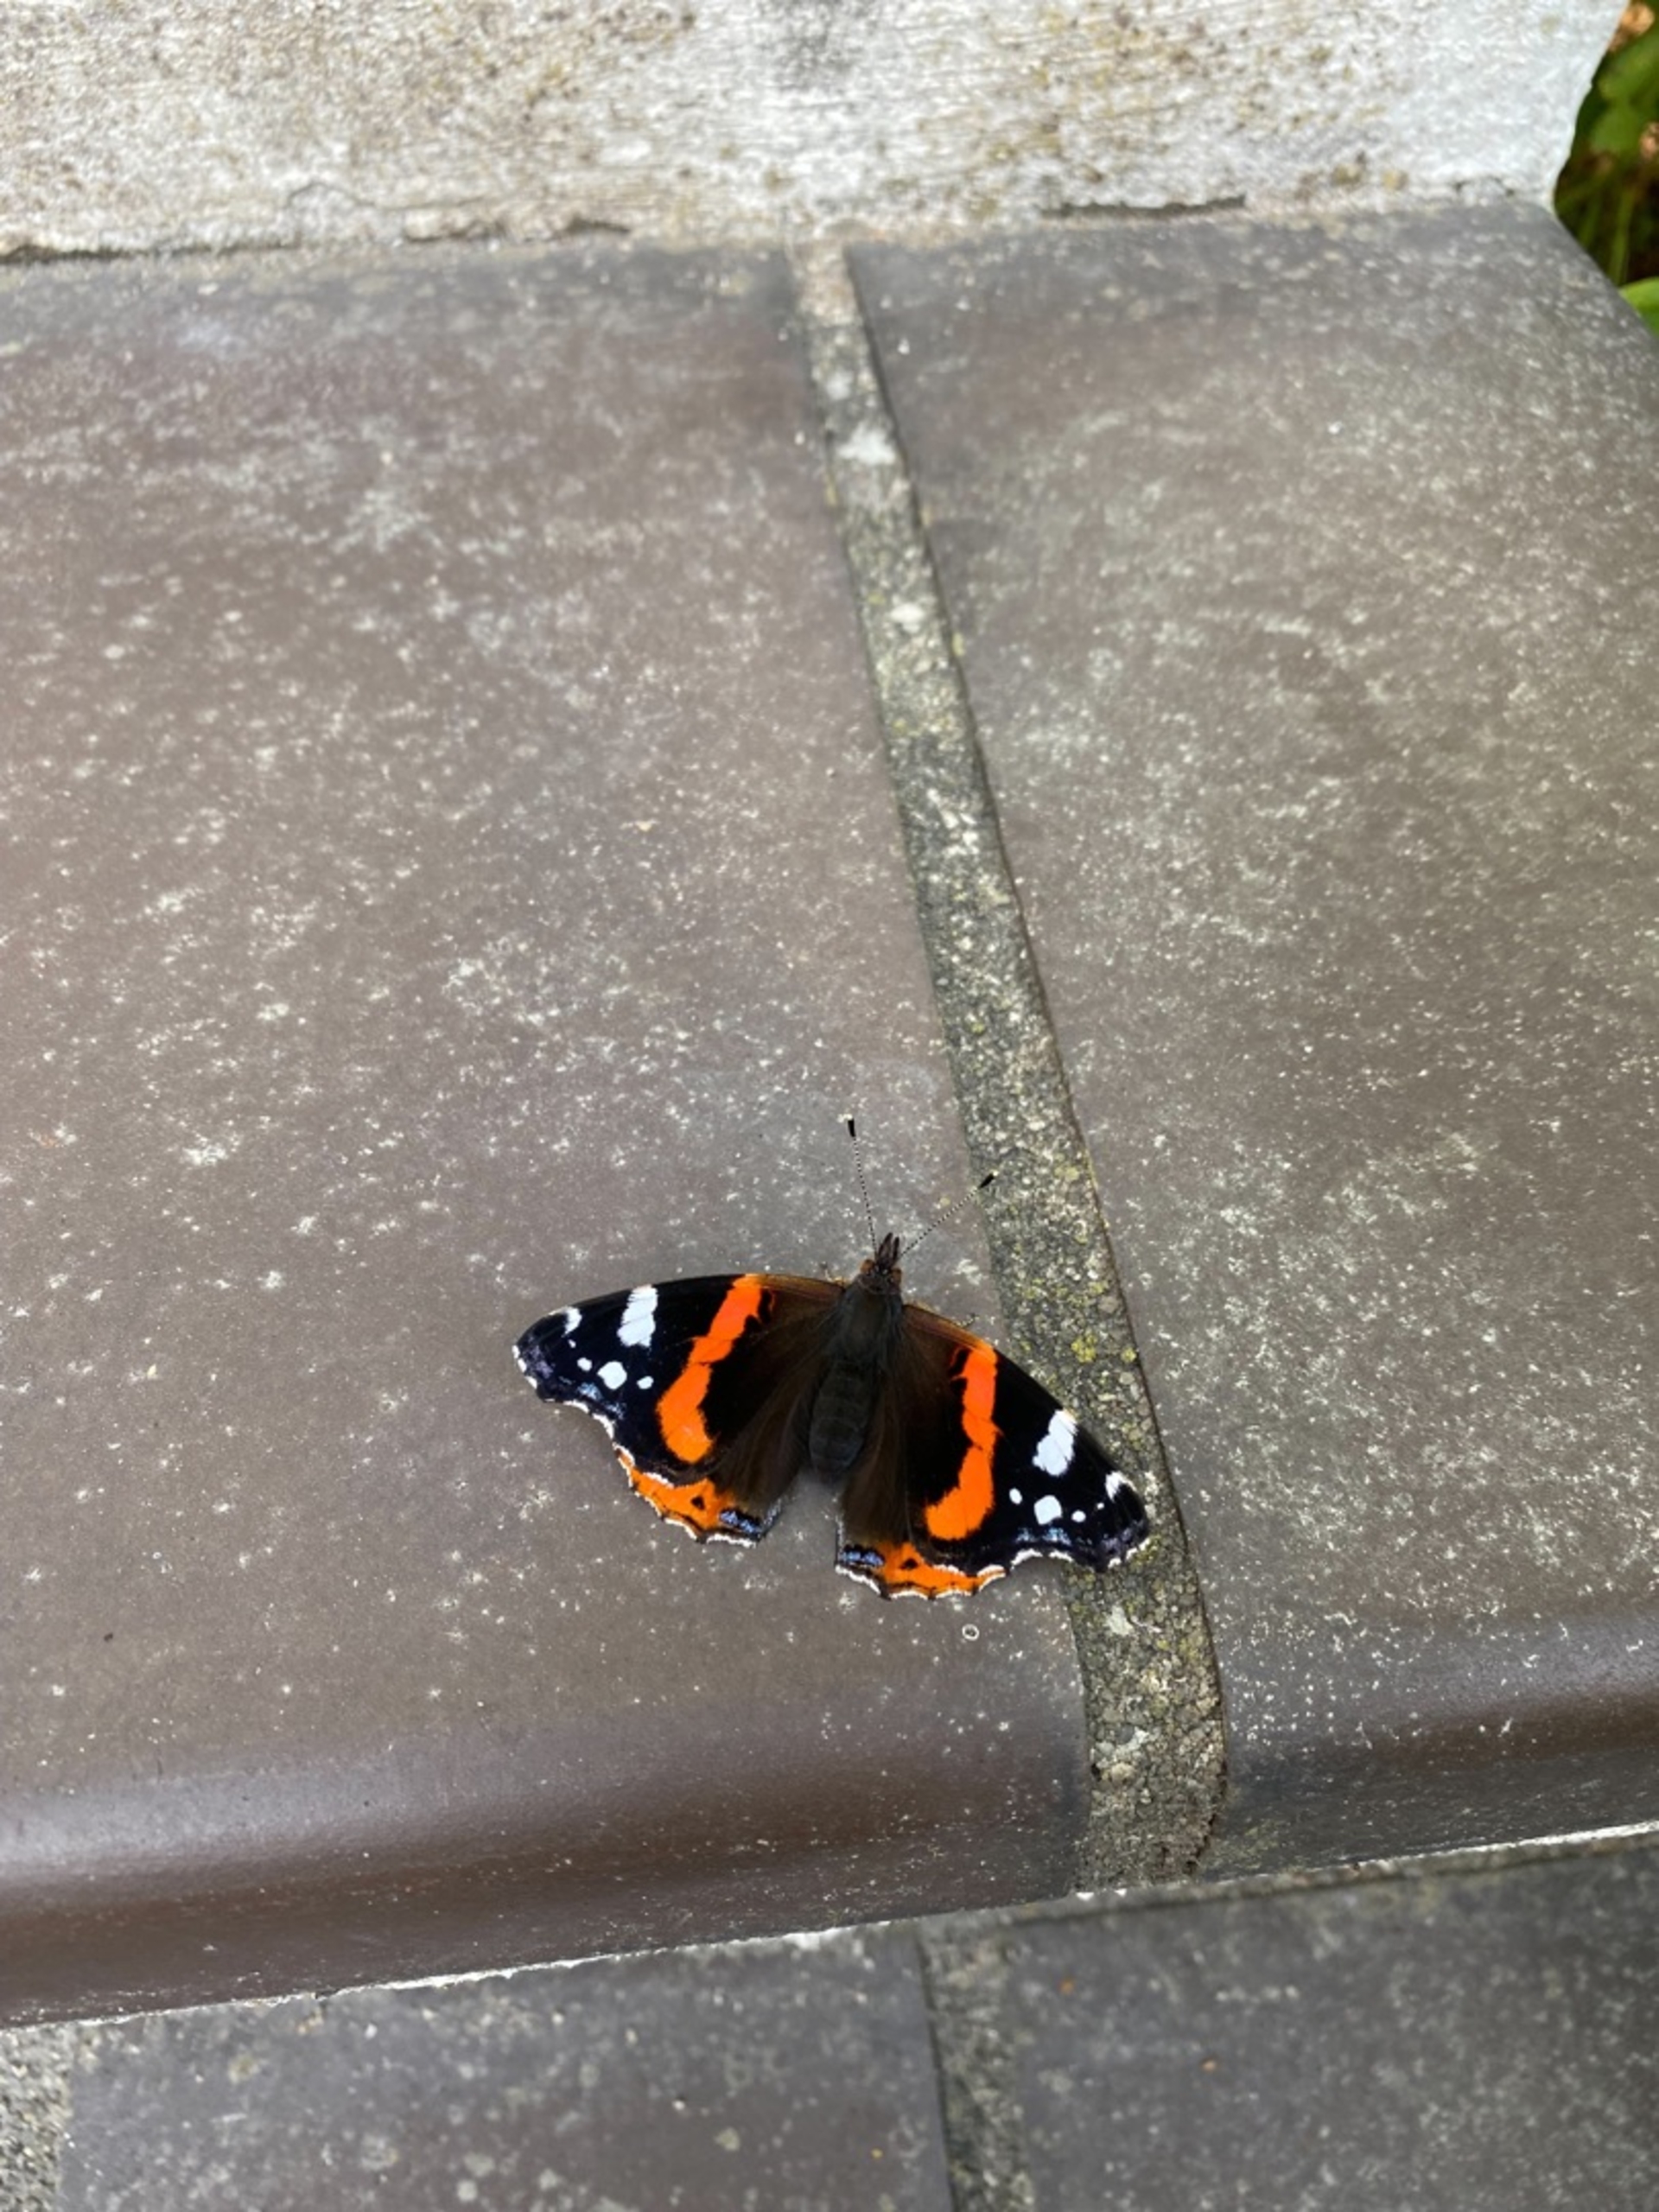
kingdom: Animalia
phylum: Arthropoda
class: Insecta
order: Lepidoptera
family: Nymphalidae
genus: Vanessa
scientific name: Vanessa atalanta
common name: Admiral
